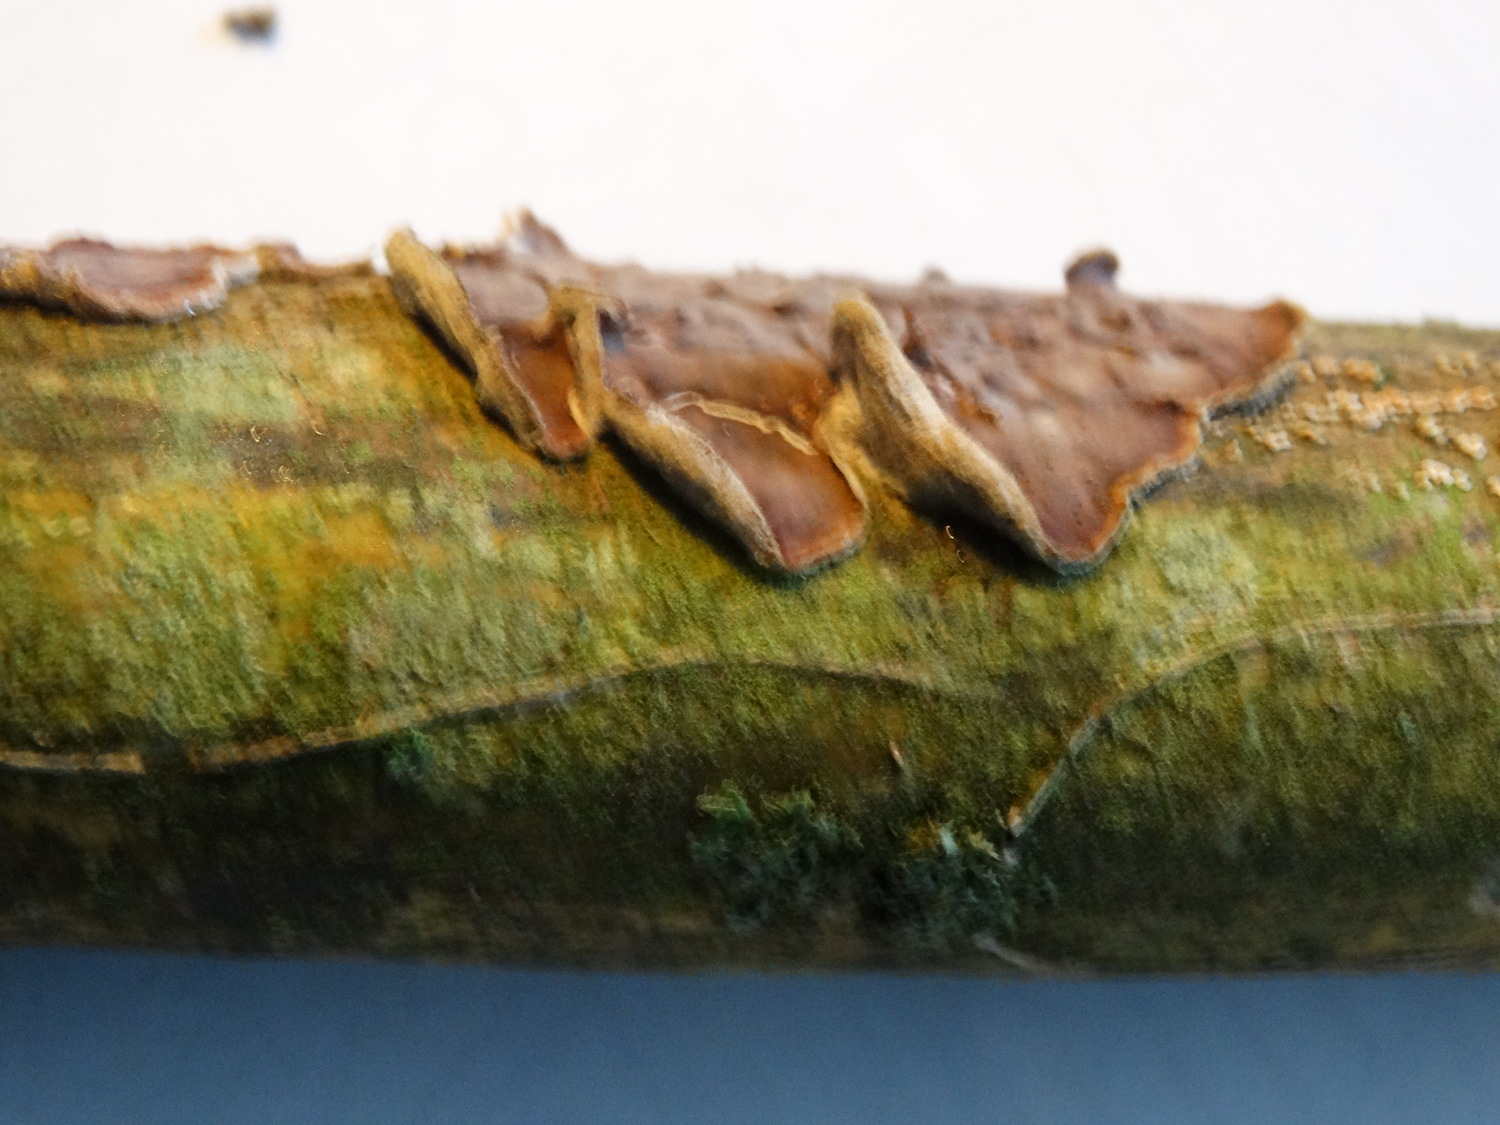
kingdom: Fungi
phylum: Basidiomycota
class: Agaricomycetes
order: Agaricales
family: Cyphellaceae
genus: Chondrostereum
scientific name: Chondrostereum purpureum
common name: purpurlædersvamp
